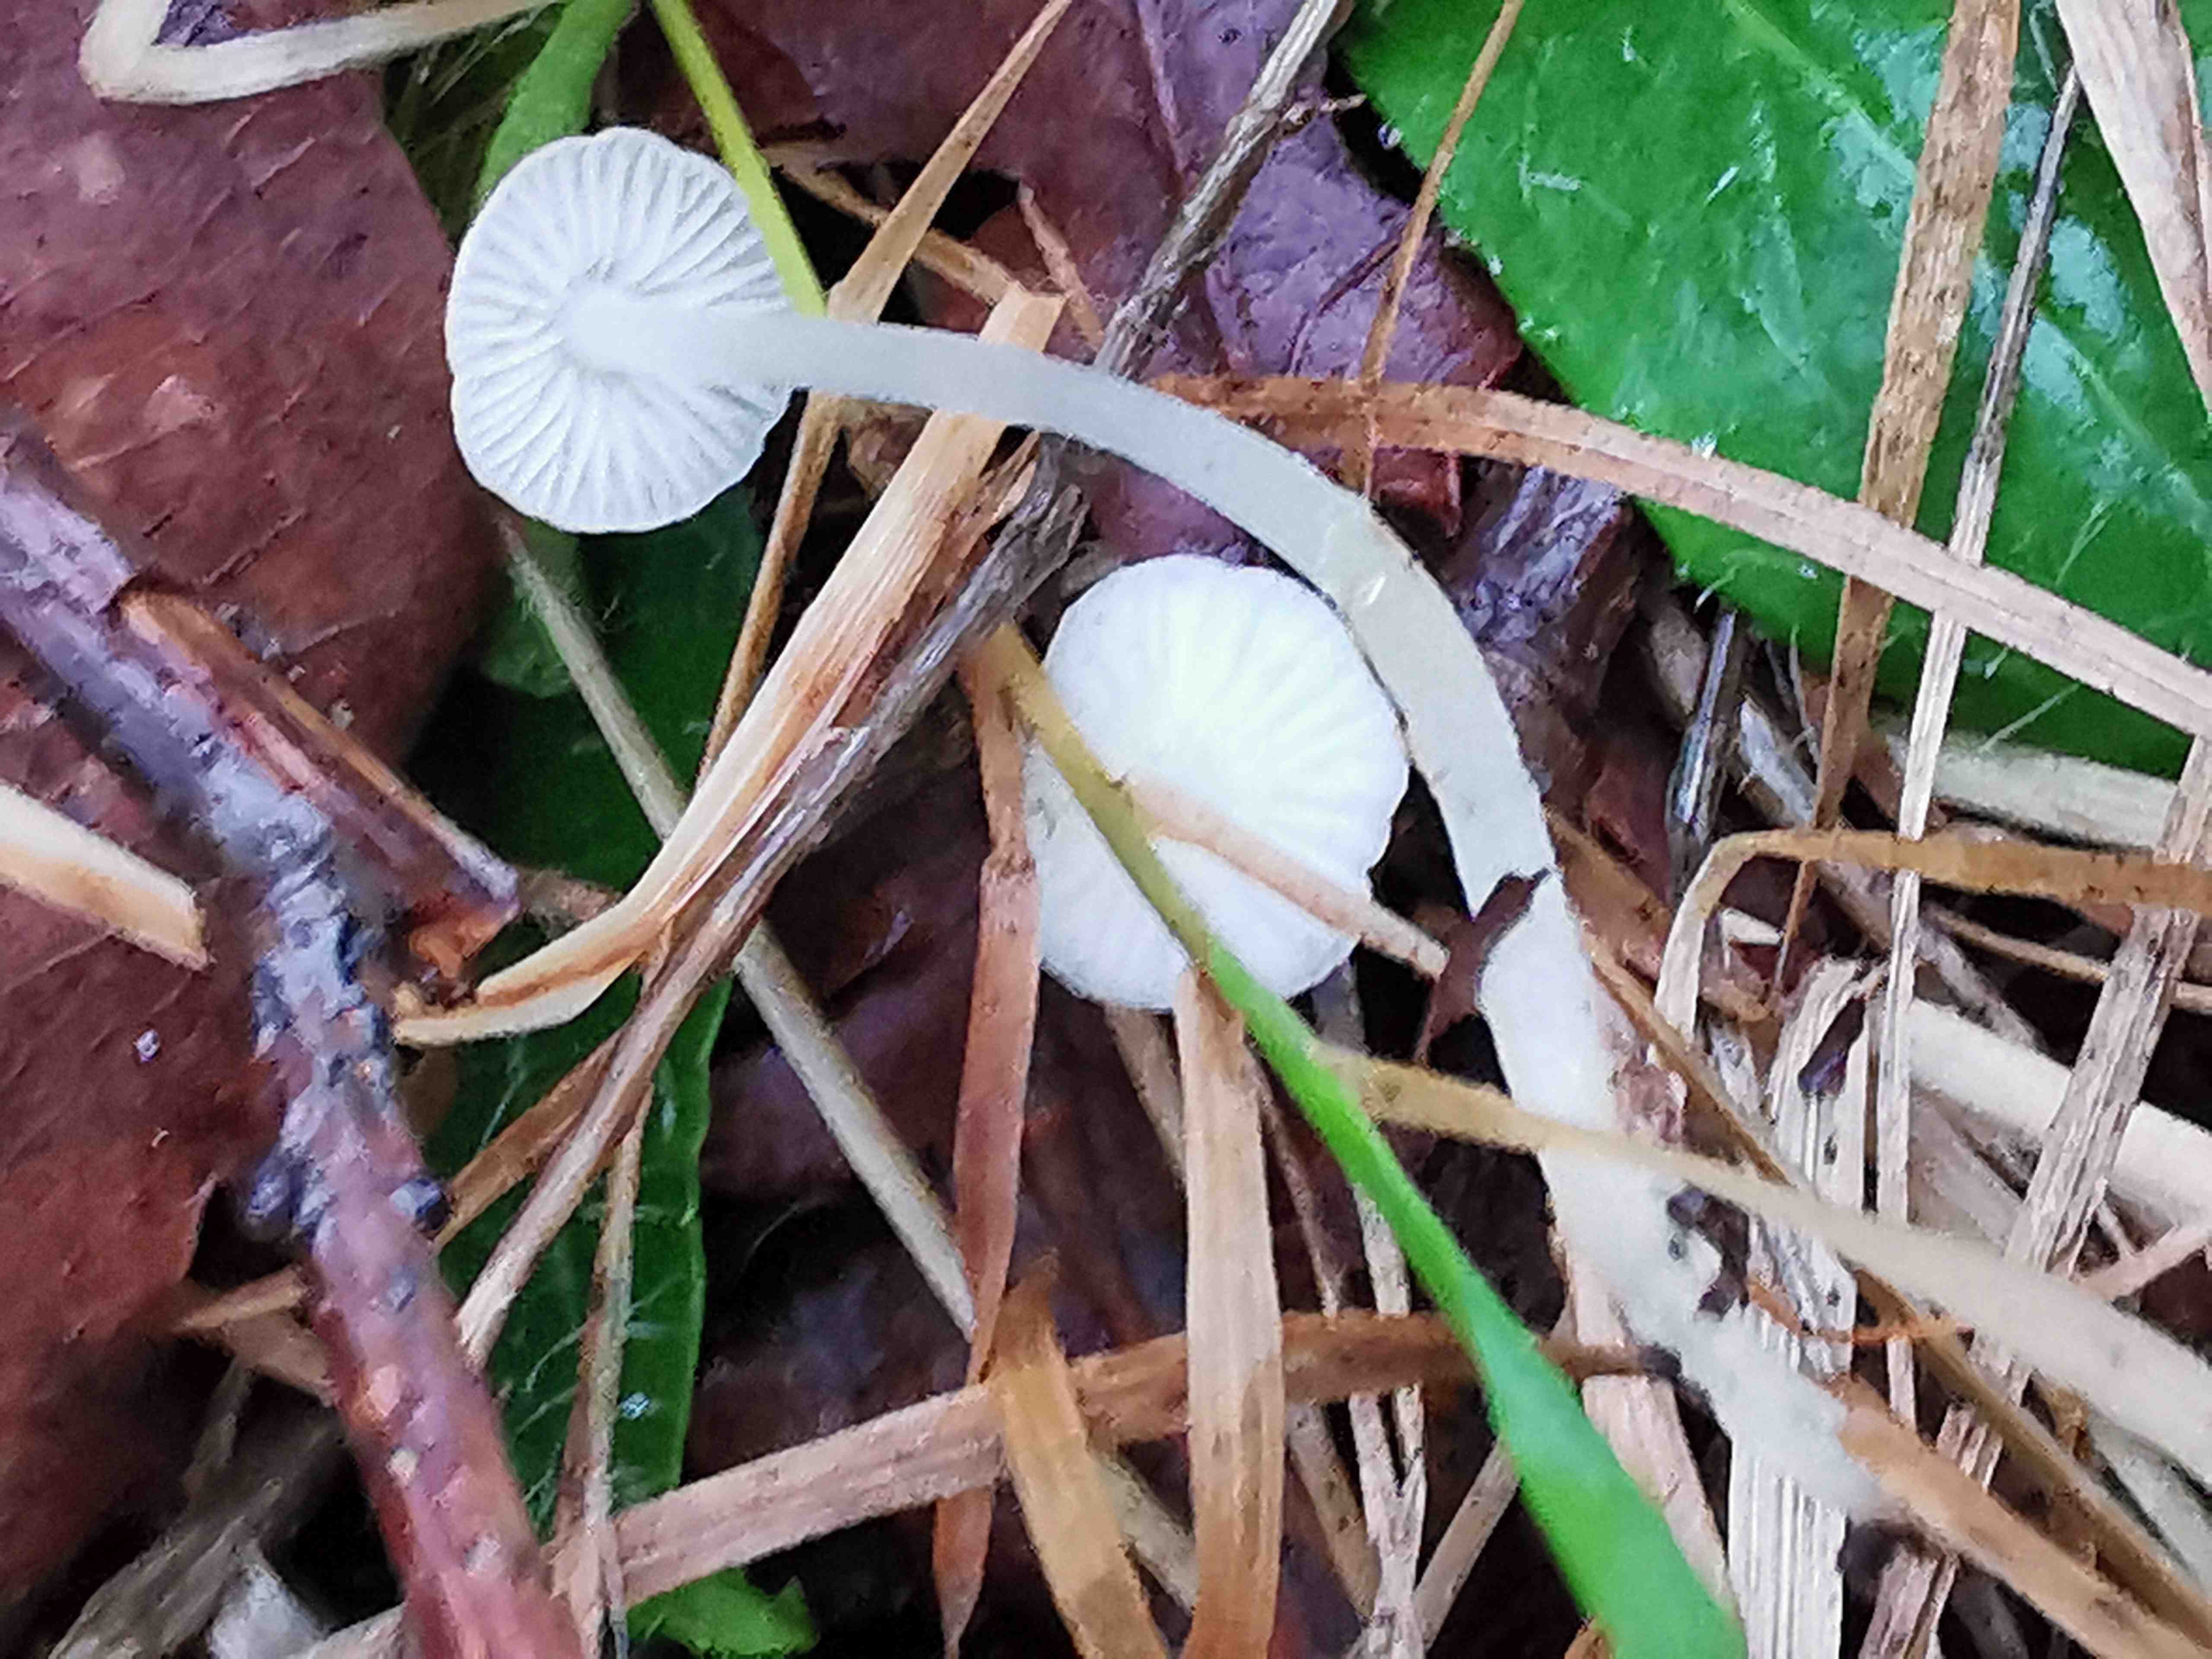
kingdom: Fungi
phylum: Basidiomycota
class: Agaricomycetes
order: Agaricales
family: Mycenaceae
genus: Hemimycena
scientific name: Hemimycena
